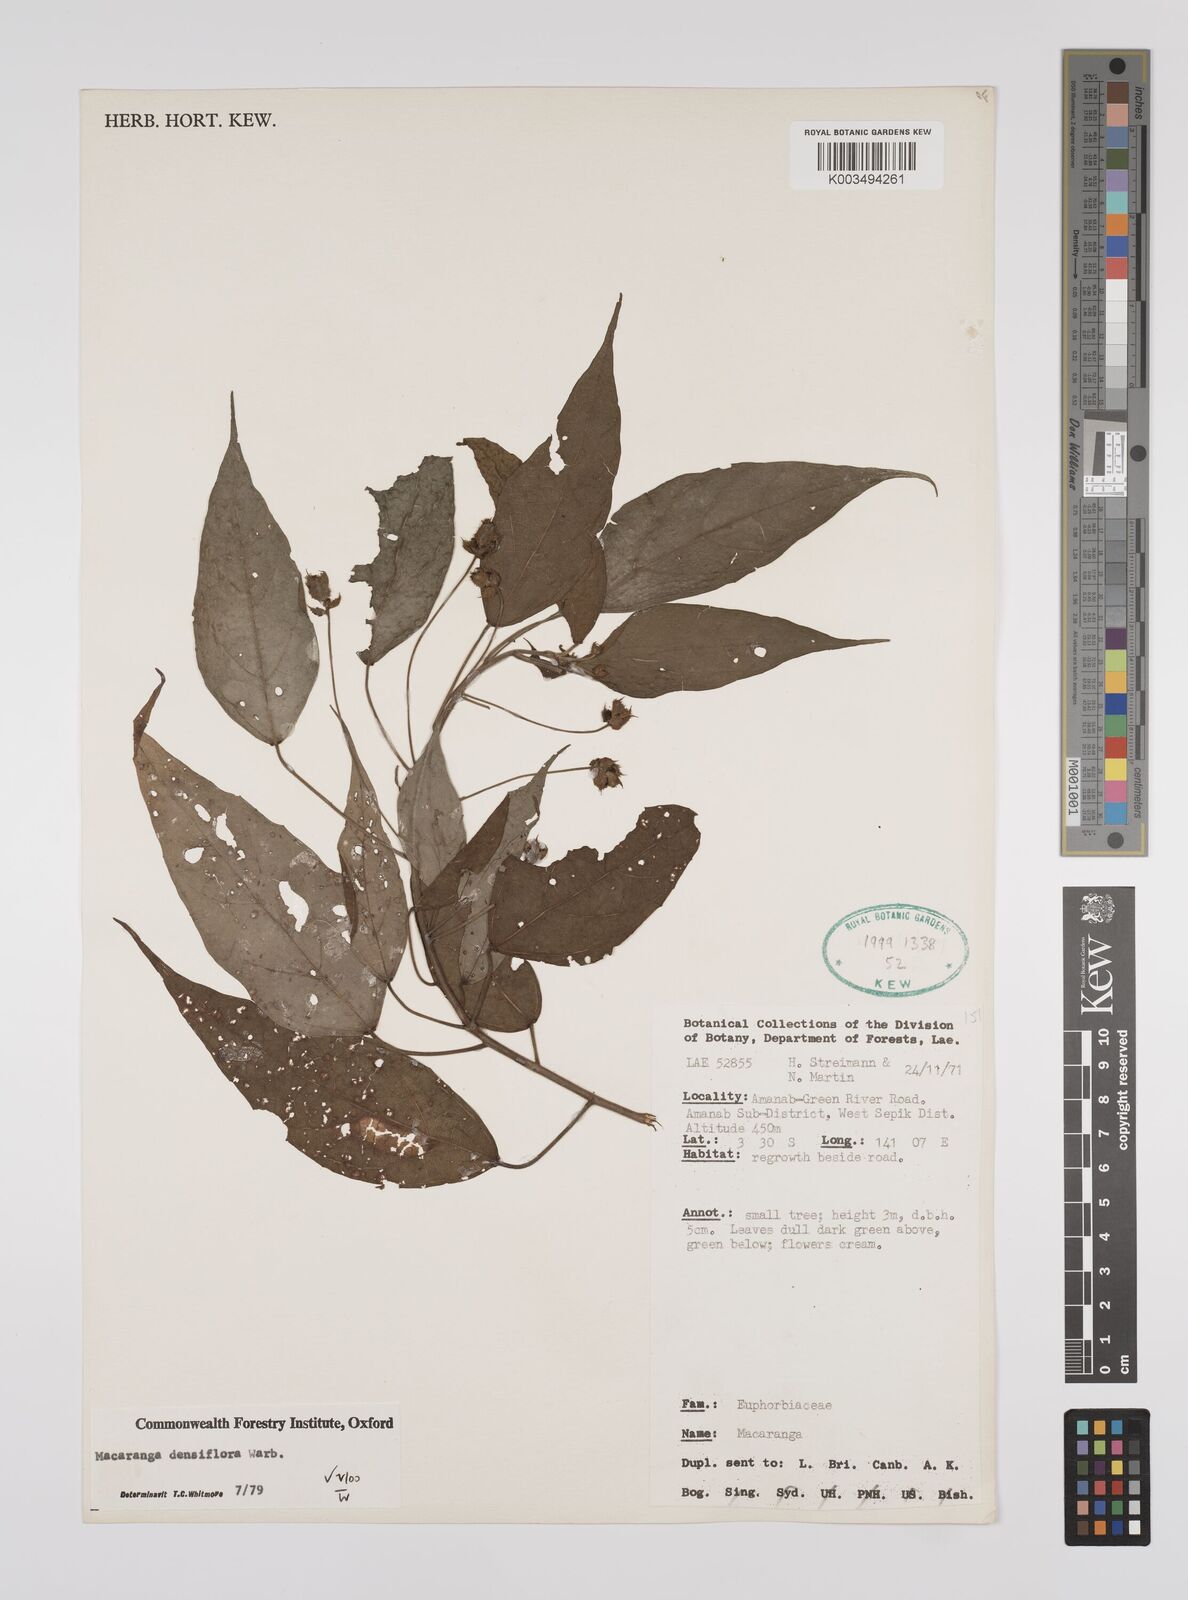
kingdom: Plantae
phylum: Tracheophyta
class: Magnoliopsida
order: Malpighiales
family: Euphorbiaceae
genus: Macaranga
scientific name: Macaranga densiflora
